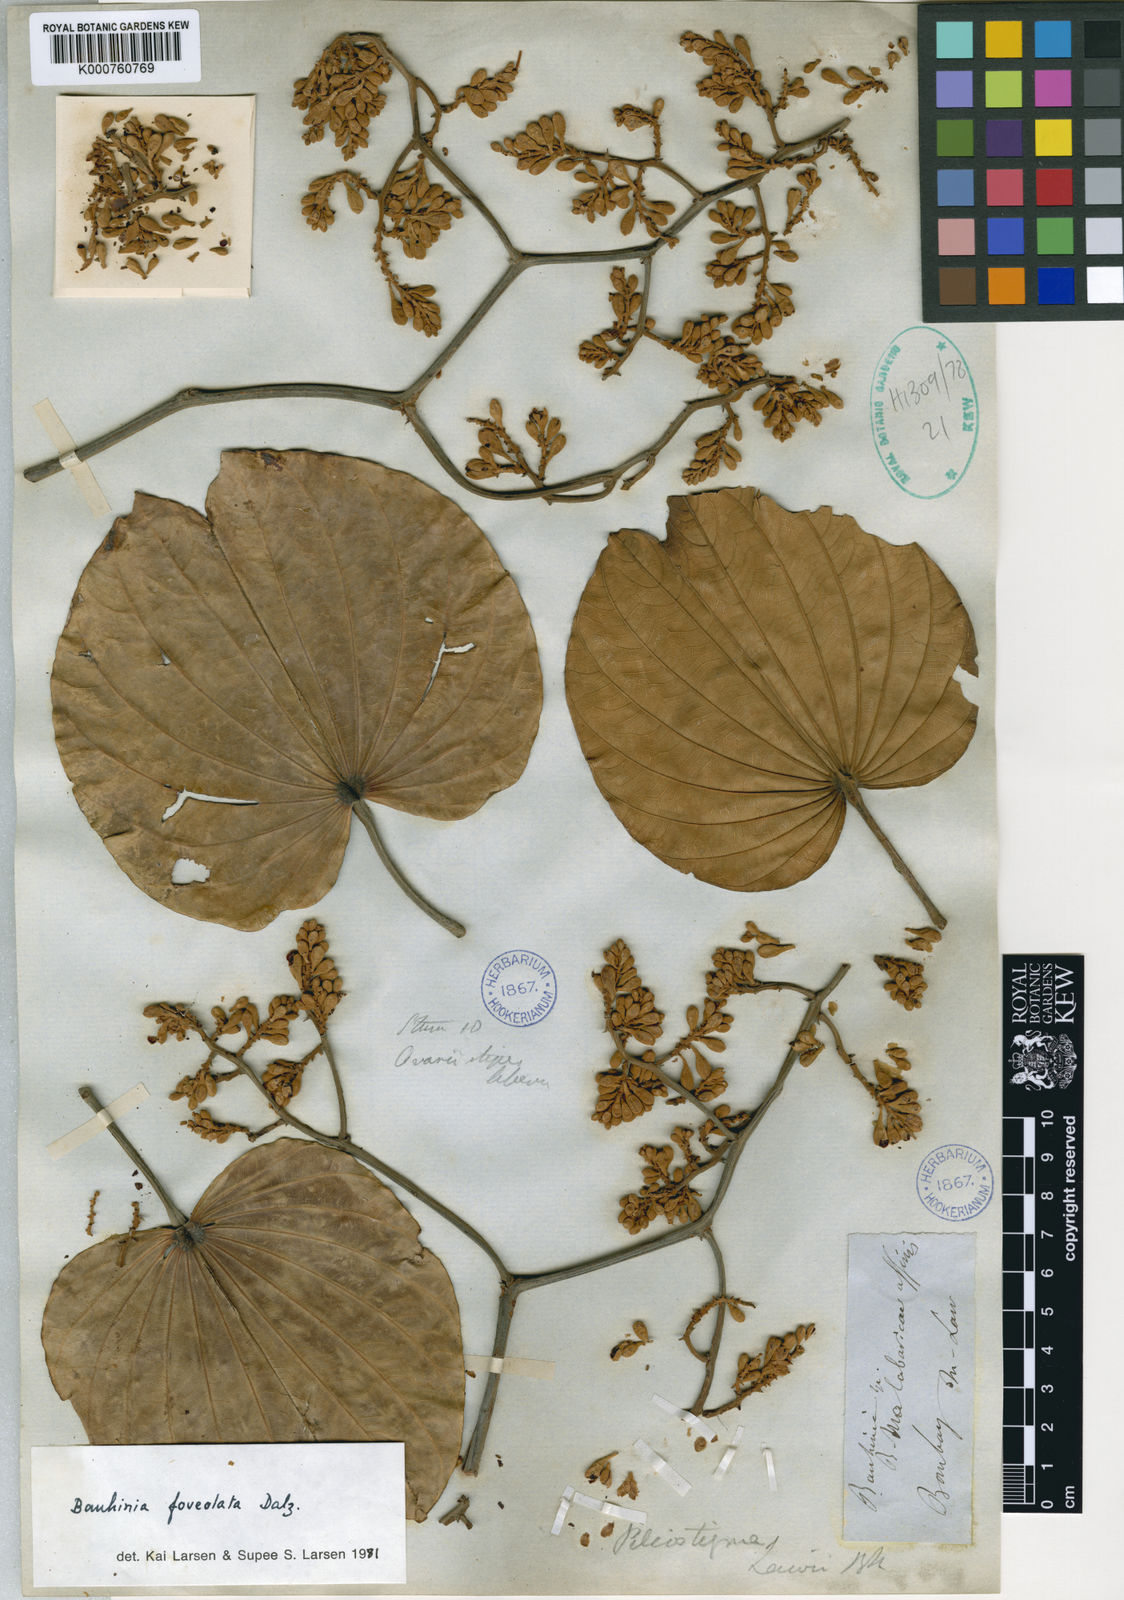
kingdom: Plantae
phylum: Tracheophyta
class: Magnoliopsida
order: Fabales
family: Fabaceae
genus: Piliostigma
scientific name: Piliostigma foveolatum
